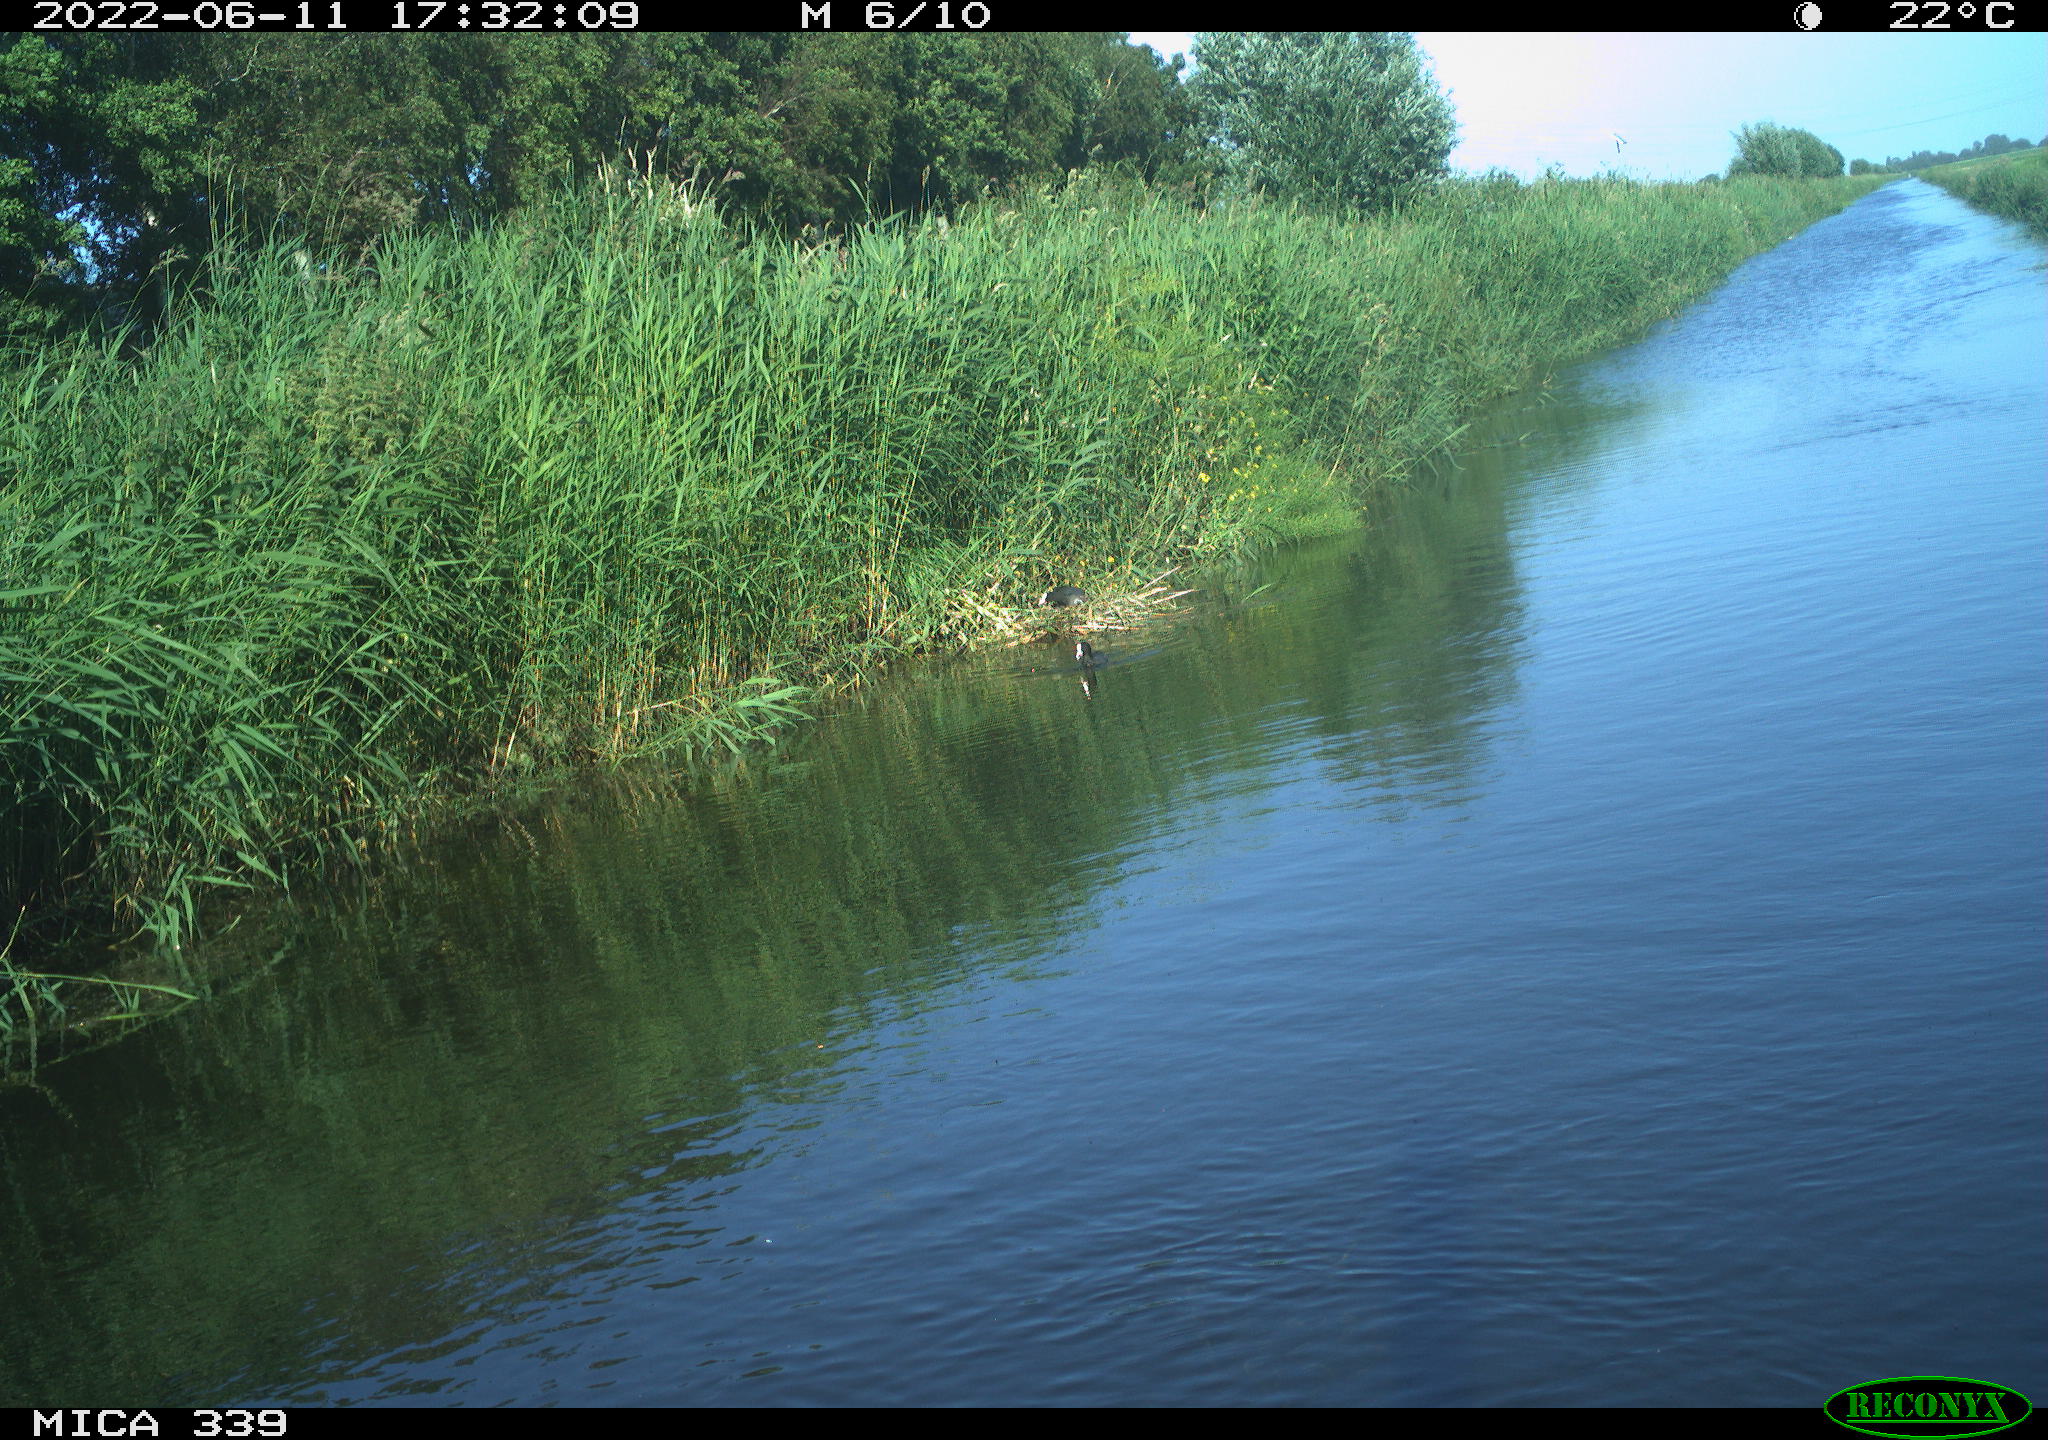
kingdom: Animalia
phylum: Chordata
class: Aves
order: Gruiformes
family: Rallidae
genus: Fulica
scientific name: Fulica atra
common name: Eurasian coot
